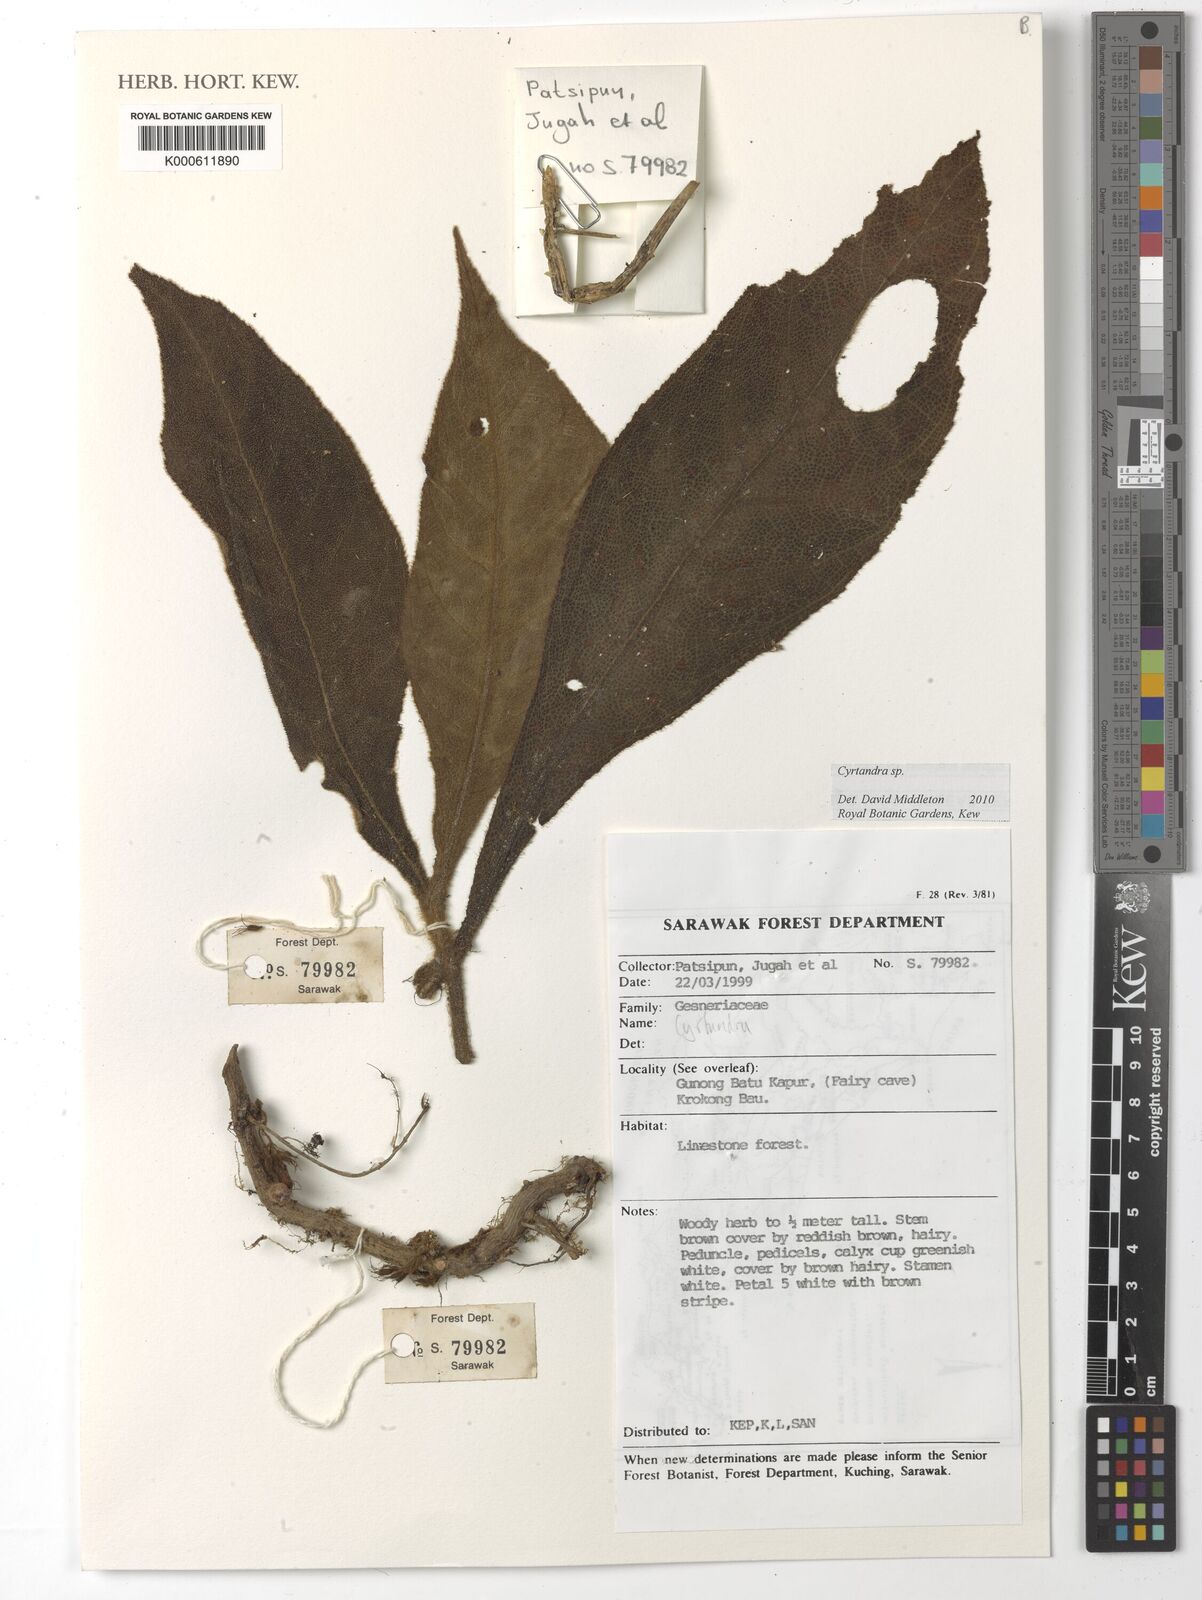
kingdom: Plantae
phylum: Tracheophyta
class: Magnoliopsida
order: Lamiales
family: Gesneriaceae
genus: Cyrtandra
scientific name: Cyrtandra
